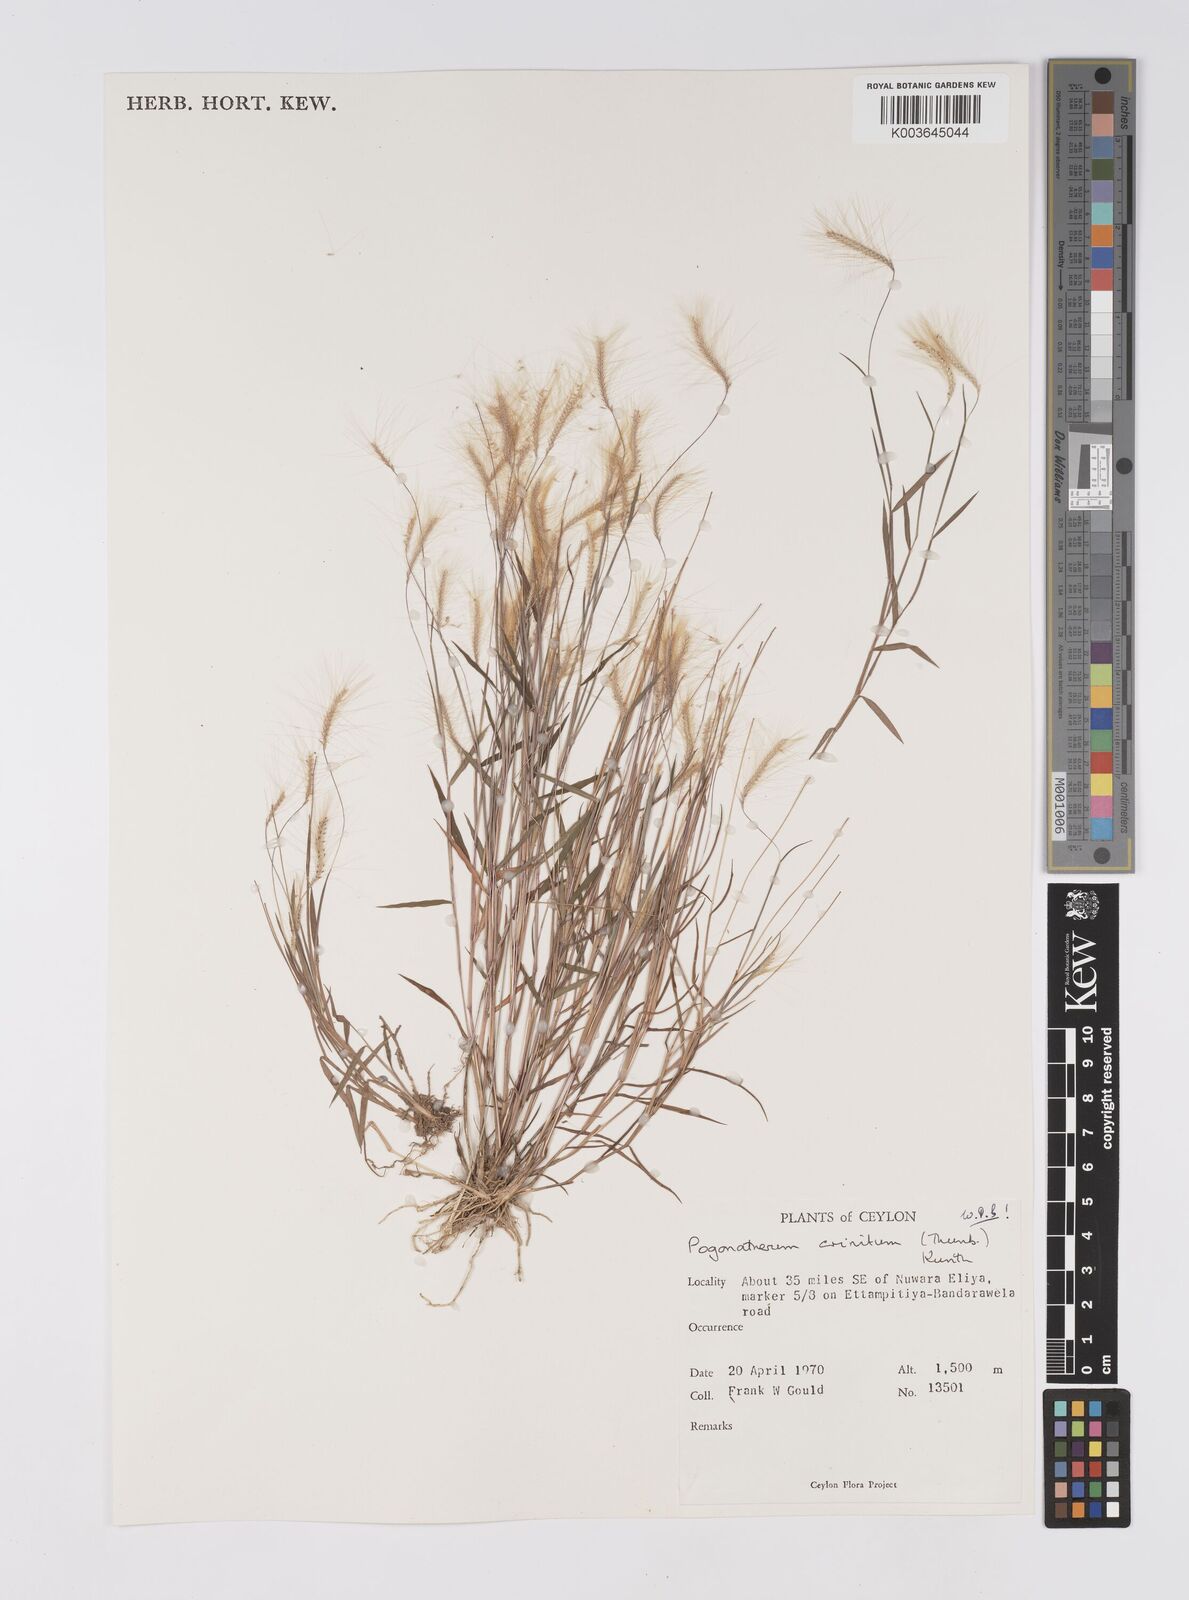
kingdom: Plantae
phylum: Tracheophyta
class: Liliopsida
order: Poales
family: Poaceae
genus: Pogonatherum
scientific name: Pogonatherum crinitum
